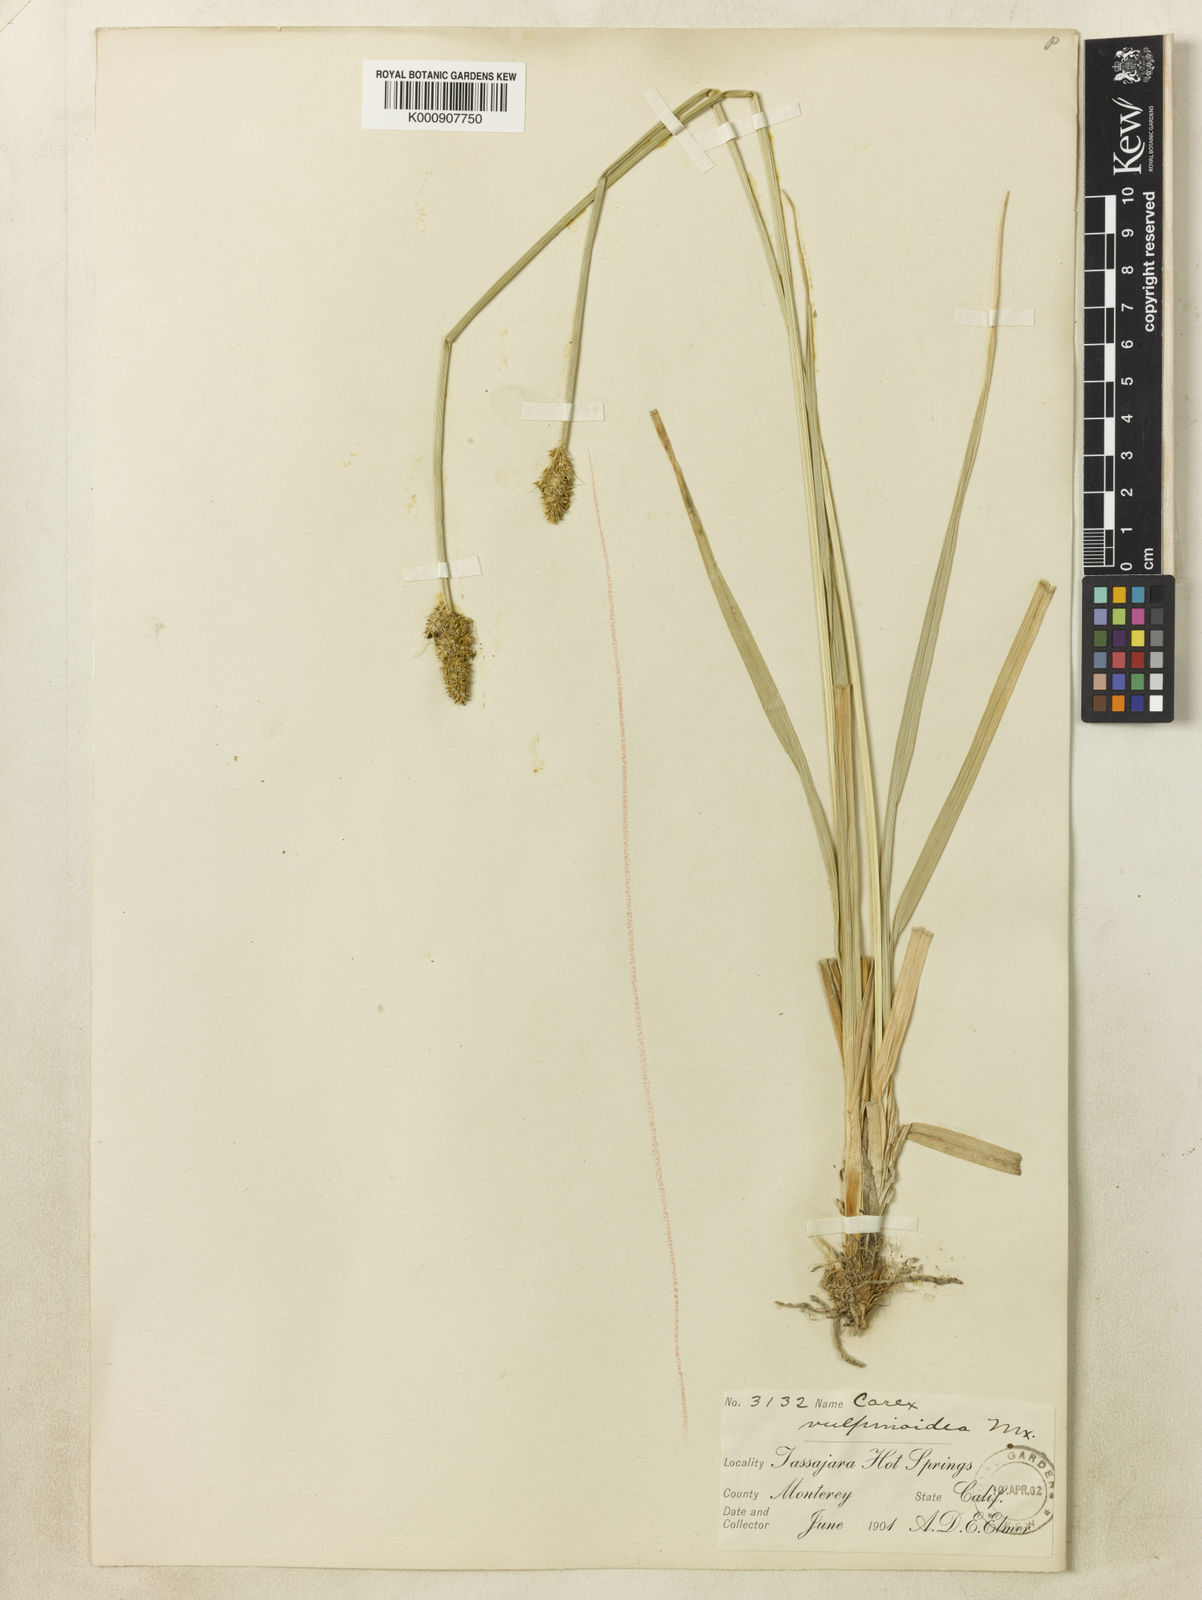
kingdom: Plantae
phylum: Tracheophyta
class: Liliopsida
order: Poales
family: Cyperaceae
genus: Carex
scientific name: Carex densa
